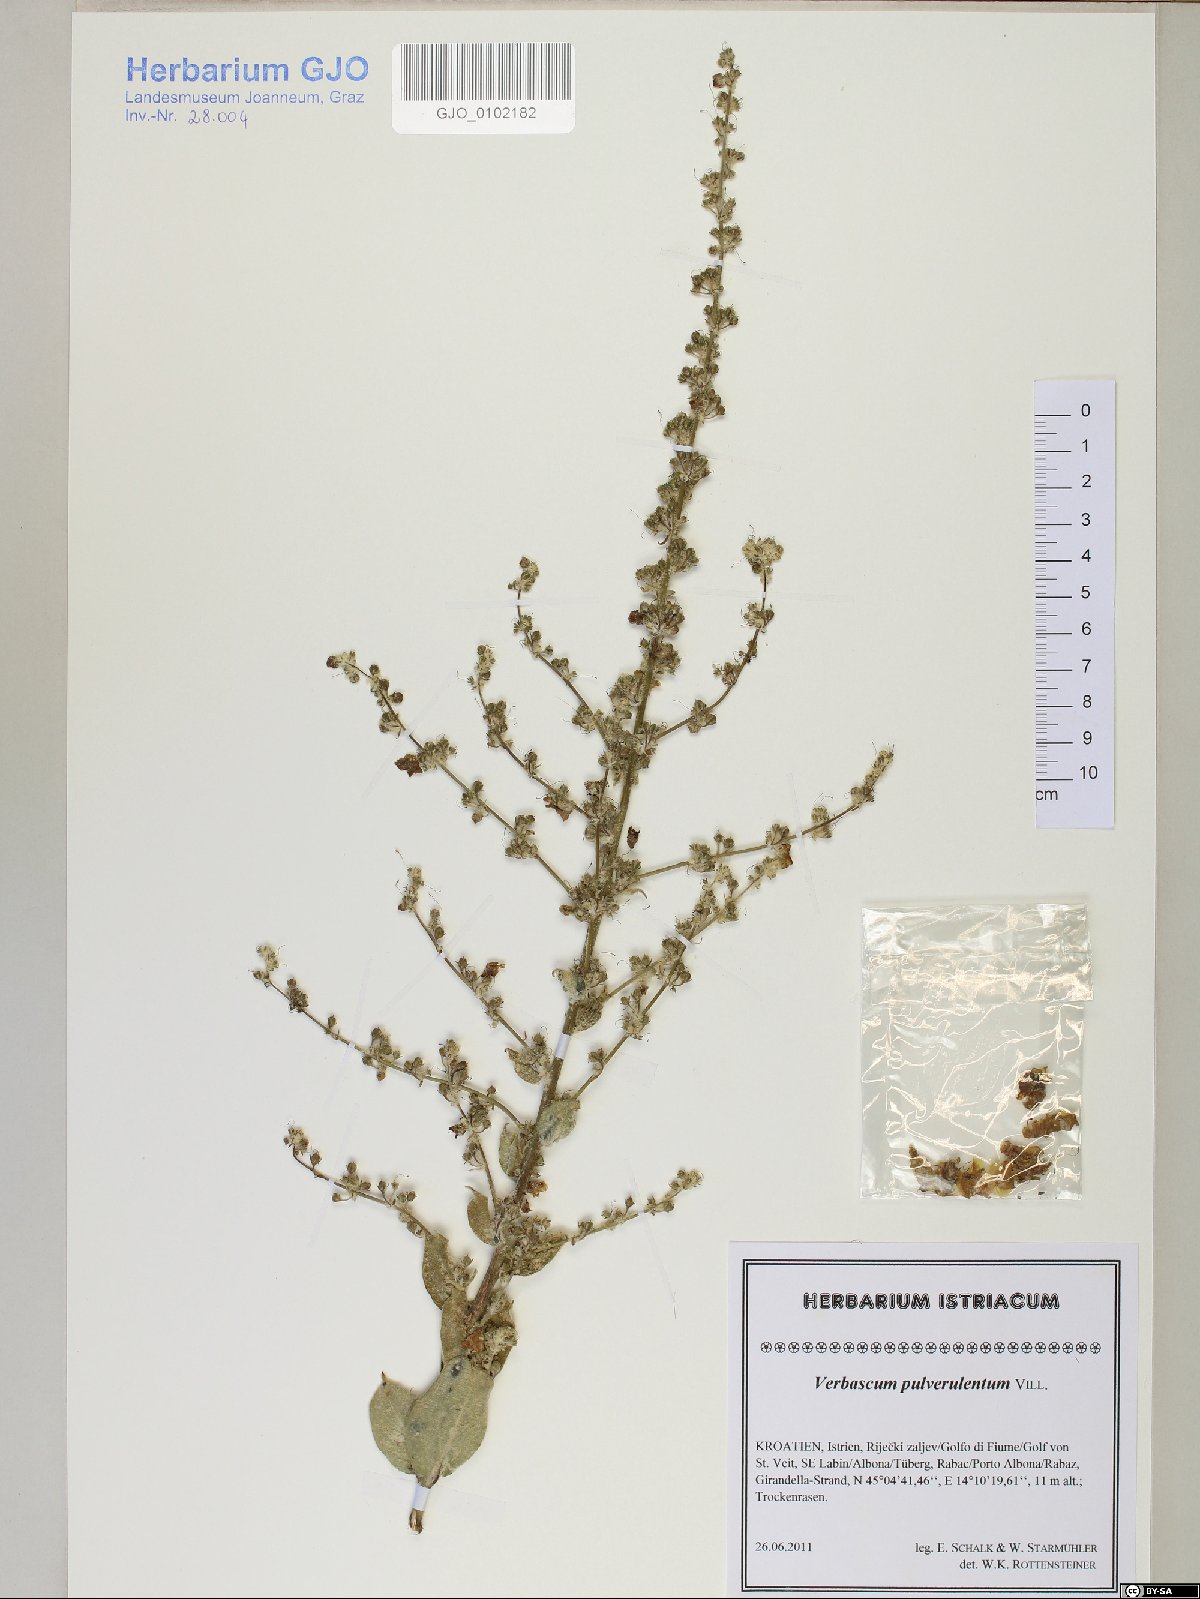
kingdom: Plantae
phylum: Tracheophyta
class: Magnoliopsida
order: Lamiales
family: Scrophulariaceae
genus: Verbascum
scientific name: Verbascum pulverulentum
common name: Broad-leaf mullein
